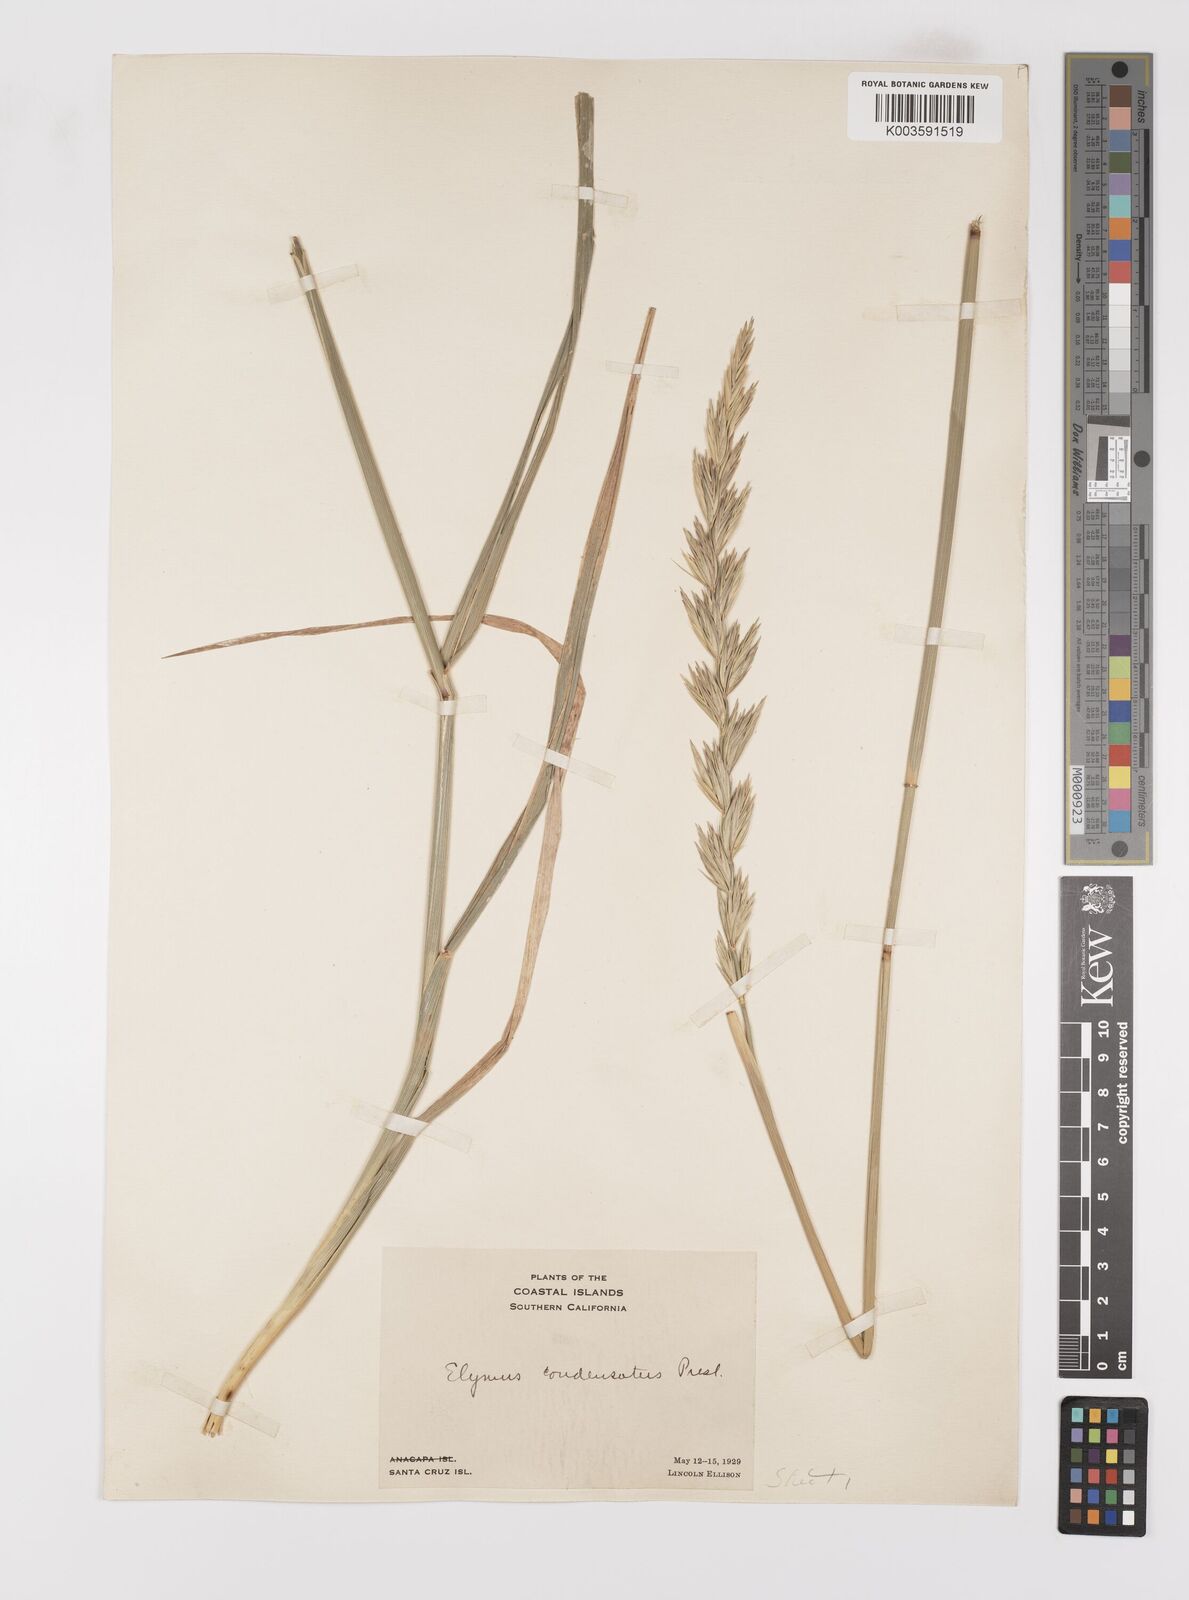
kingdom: Plantae
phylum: Tracheophyta
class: Liliopsida
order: Poales
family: Poaceae
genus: Leymus
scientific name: Leymus condensatus
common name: Giant wild rye
